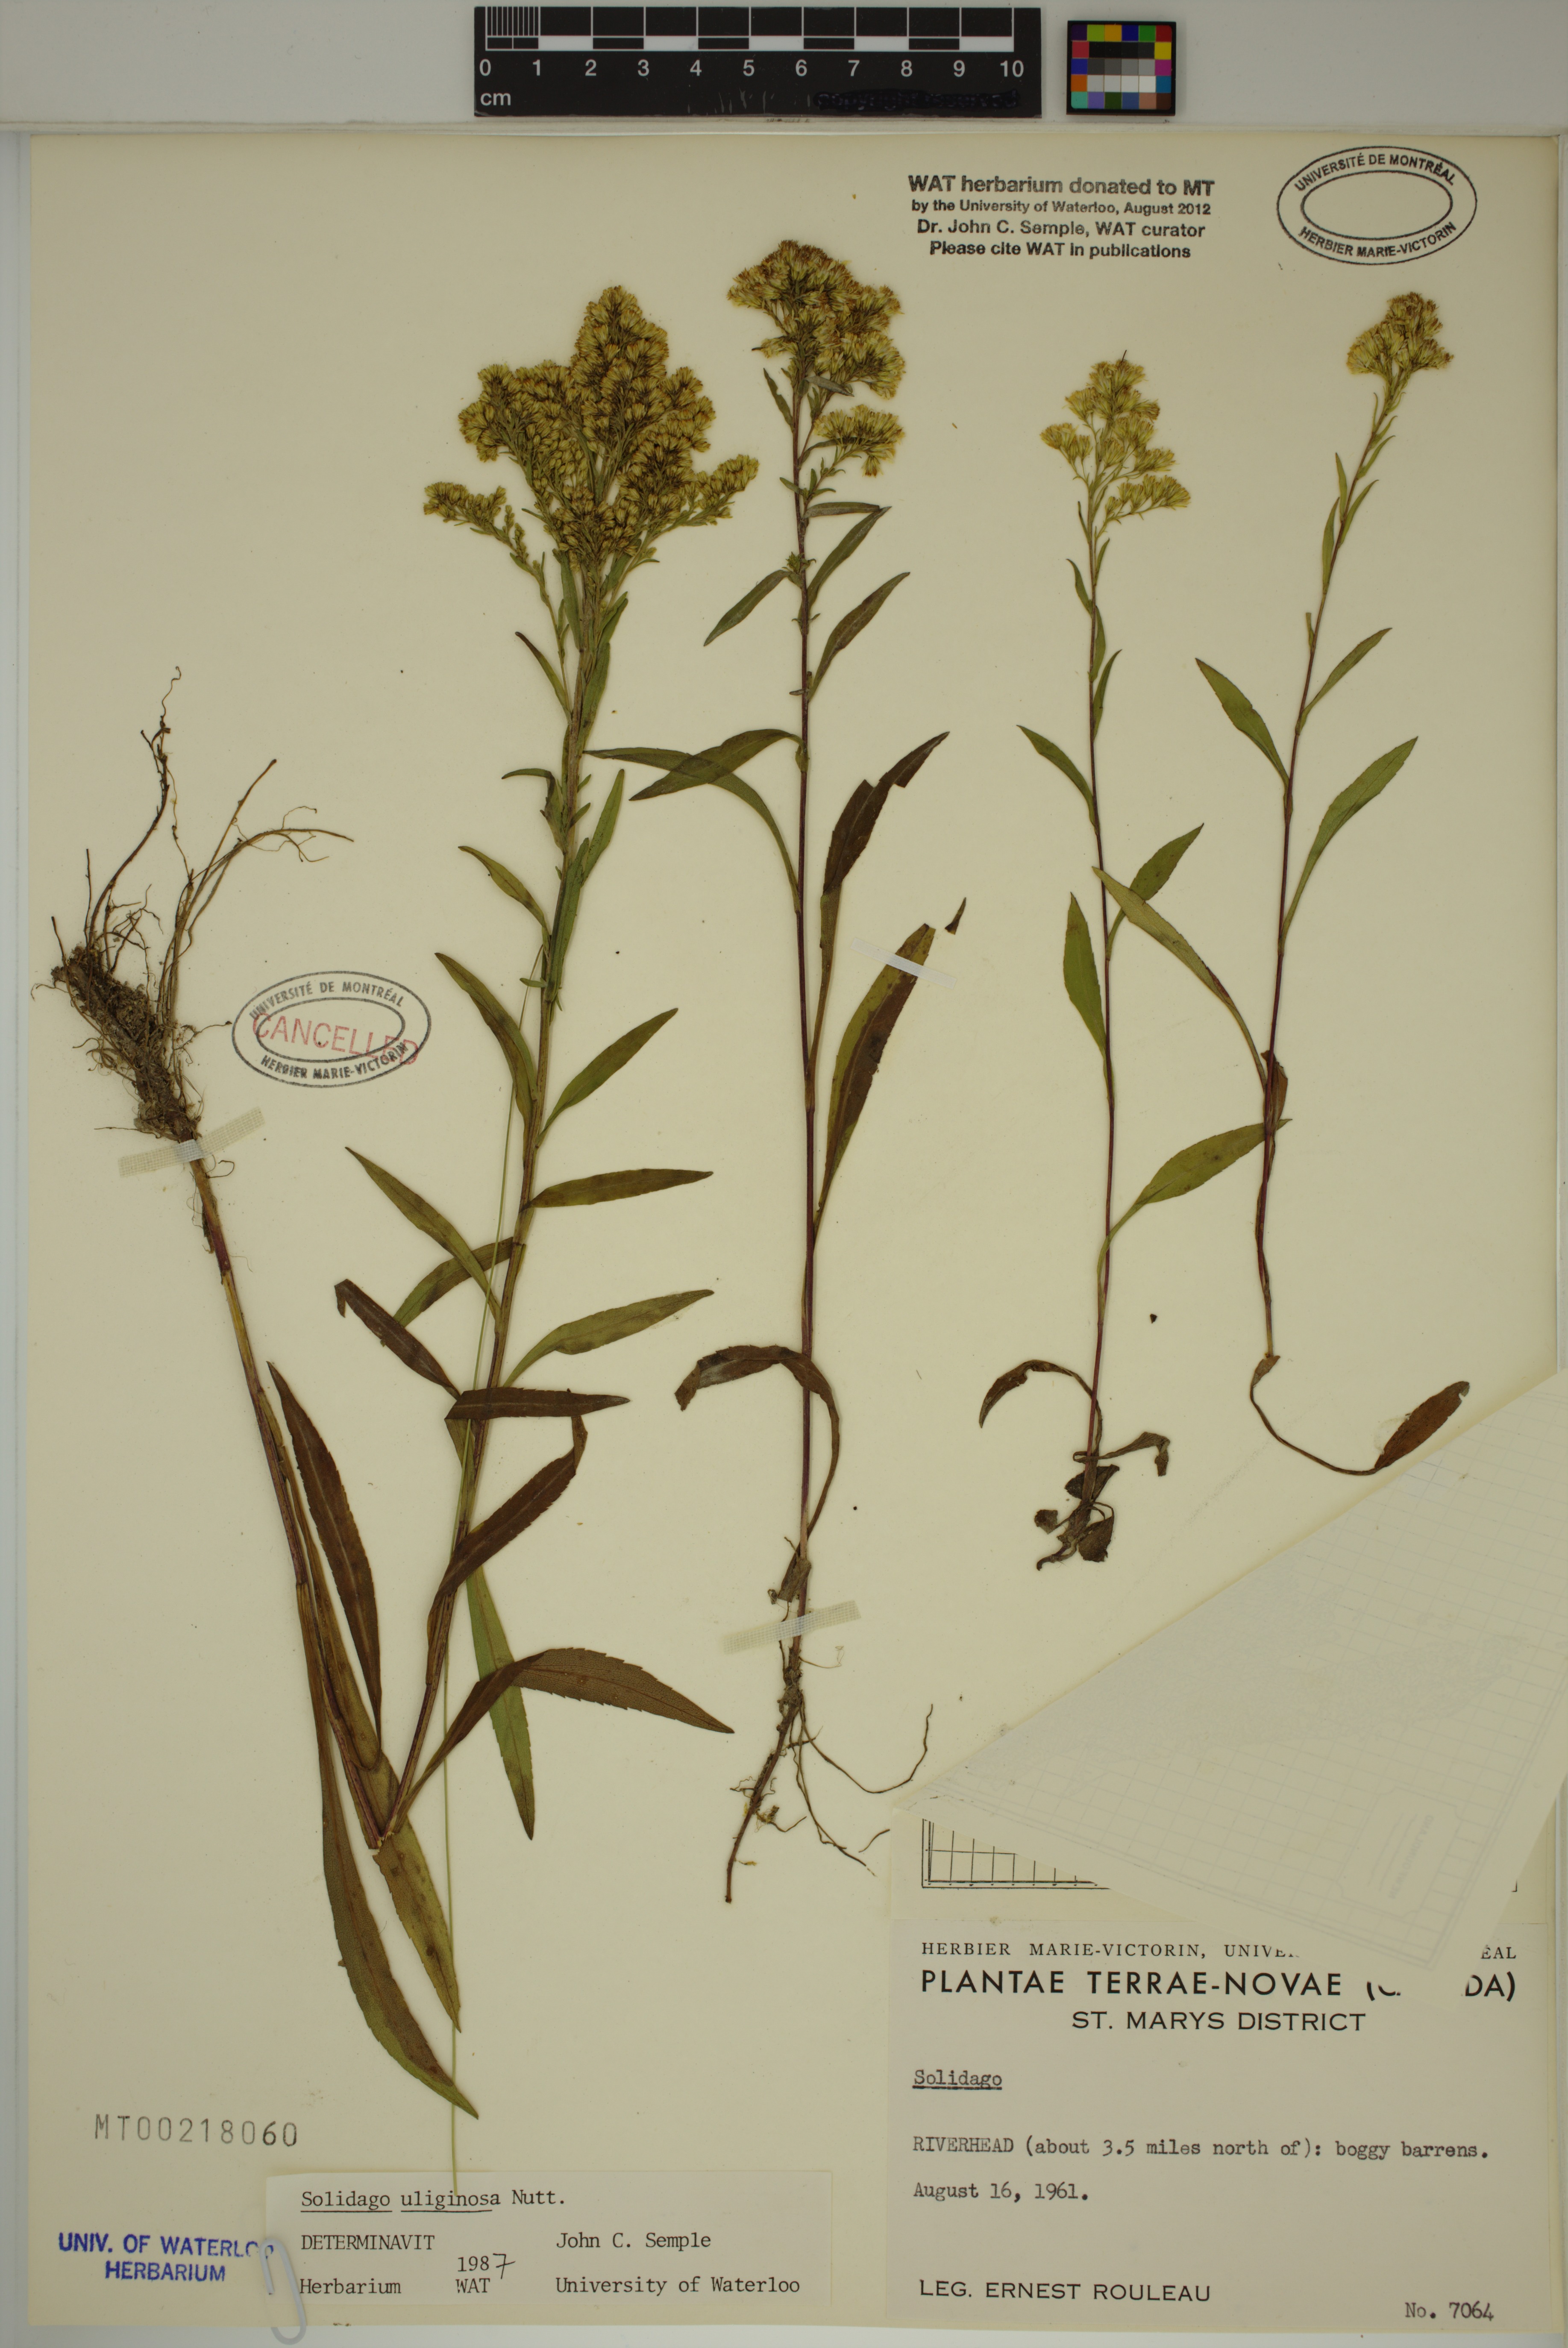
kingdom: Plantae
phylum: Tracheophyta
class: Magnoliopsida
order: Asterales
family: Asteraceae
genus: Solidago
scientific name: Solidago uliginosa
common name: Bog goldenrod
